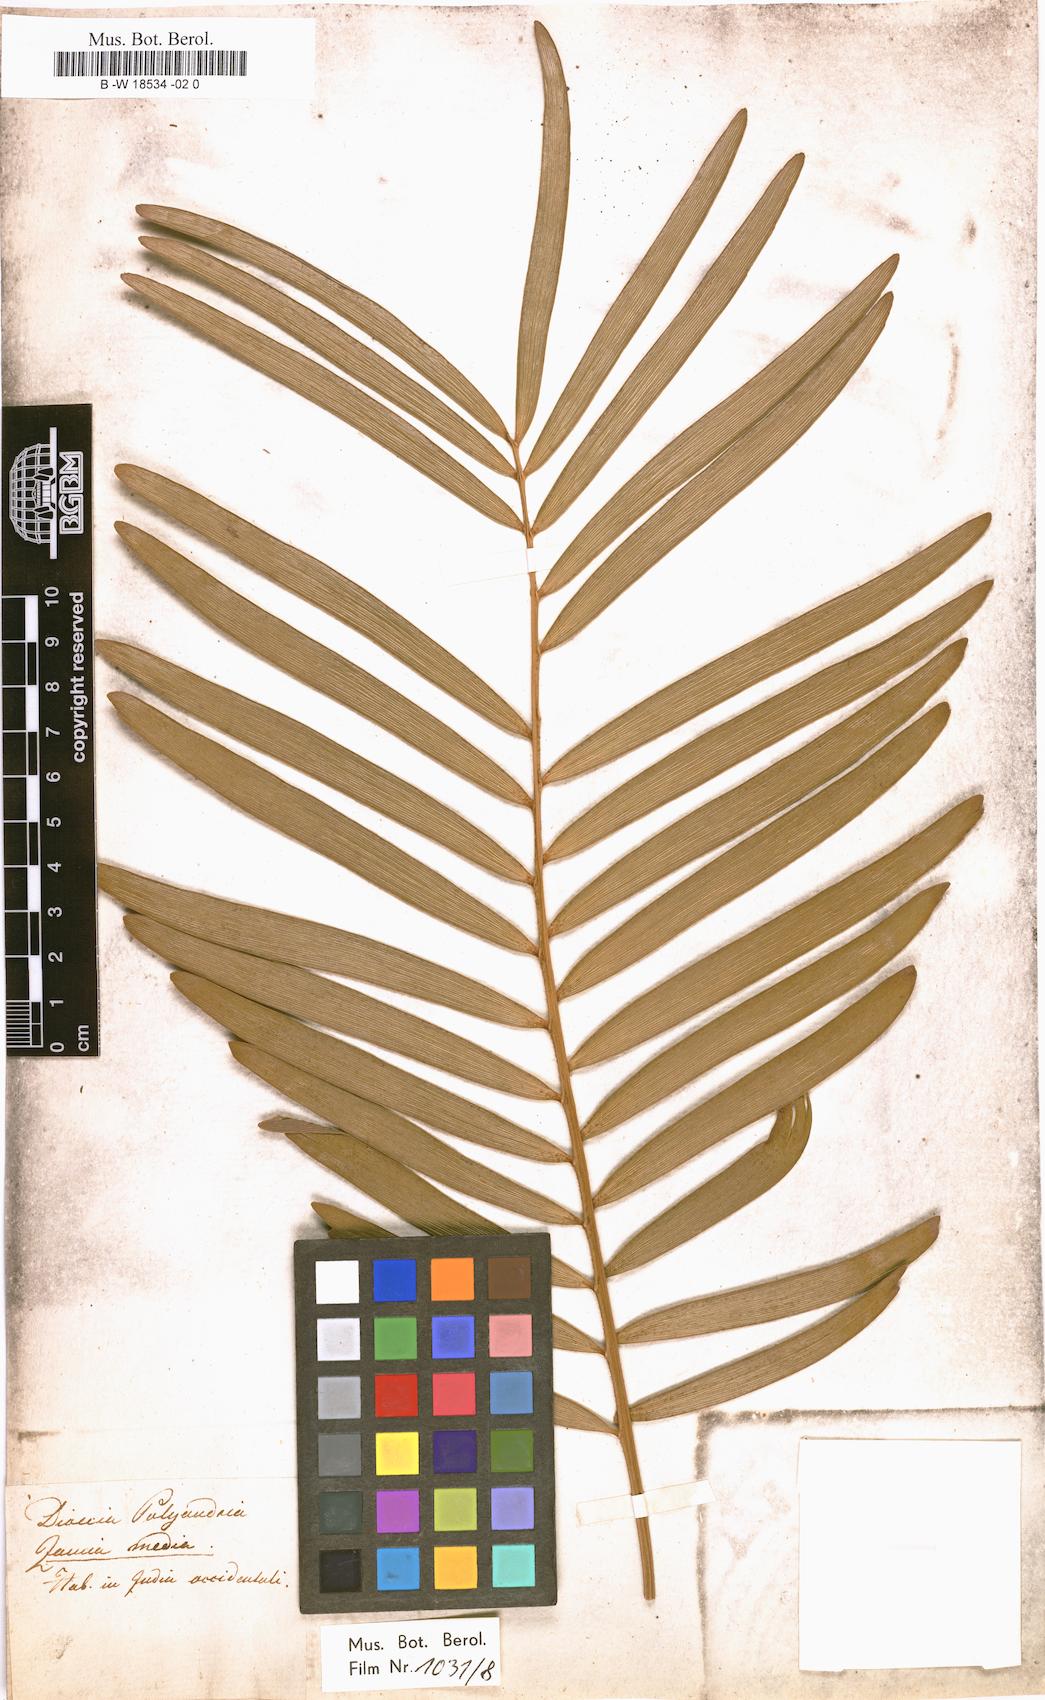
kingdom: Plantae
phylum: Tracheophyta
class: Cycadopsida
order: Cycadales
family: Zamiaceae
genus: Zamia
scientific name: Zamia integrifolia
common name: Florida arrowroot
